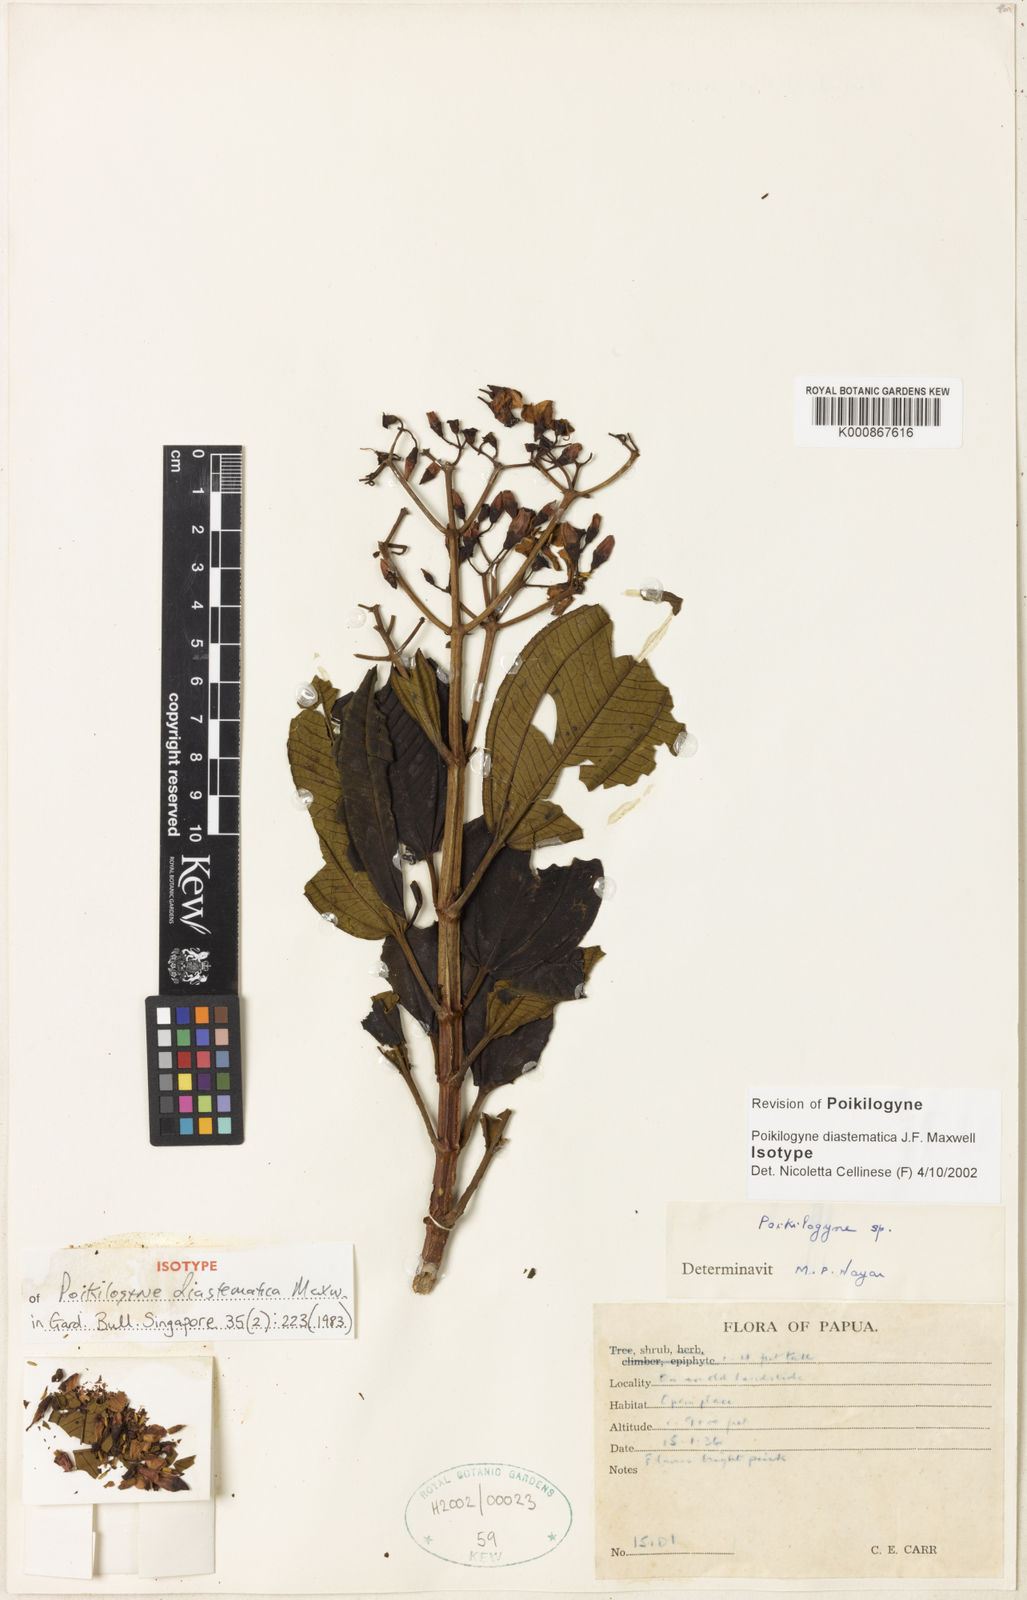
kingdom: Plantae
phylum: Tracheophyta
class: Magnoliopsida
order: Myrtales
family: Melastomataceae
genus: Poikilogyne
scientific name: Poikilogyne diastematica
